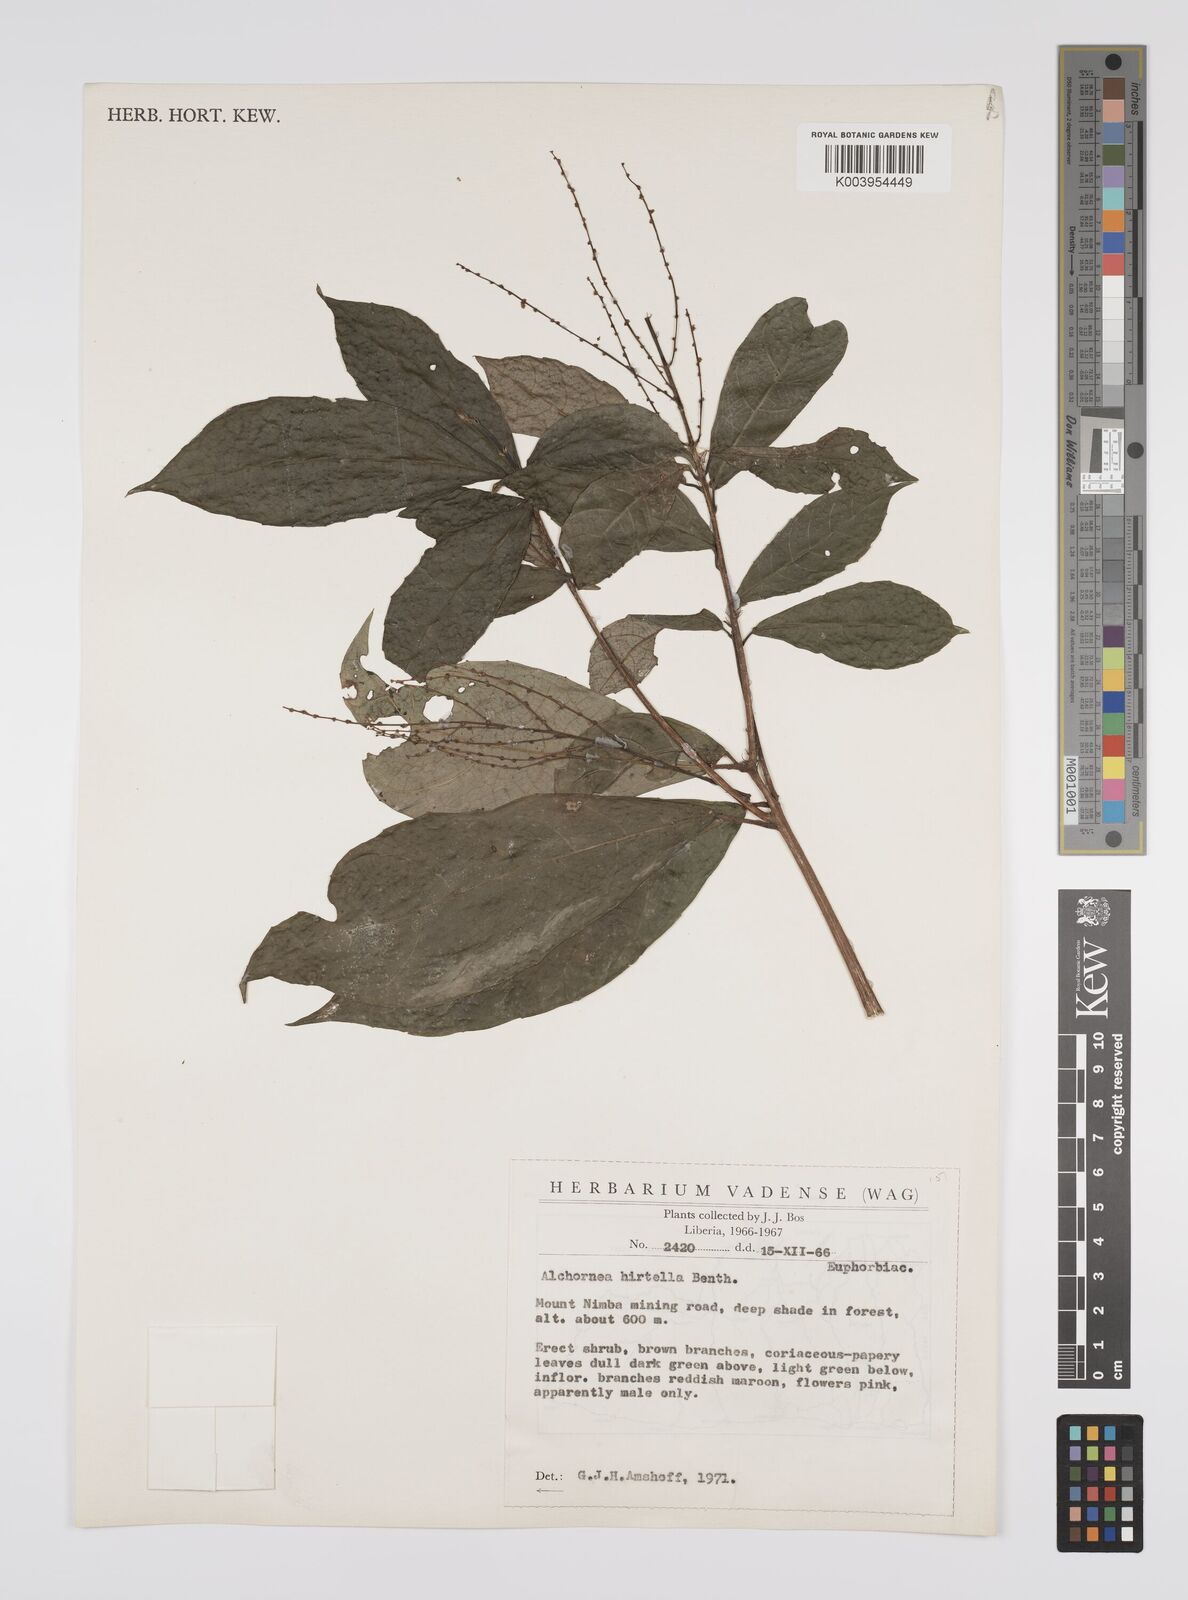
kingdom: Plantae
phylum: Tracheophyta
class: Magnoliopsida
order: Malpighiales
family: Euphorbiaceae
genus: Alchornea
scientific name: Alchornea hirtella
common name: Forest bead-string
